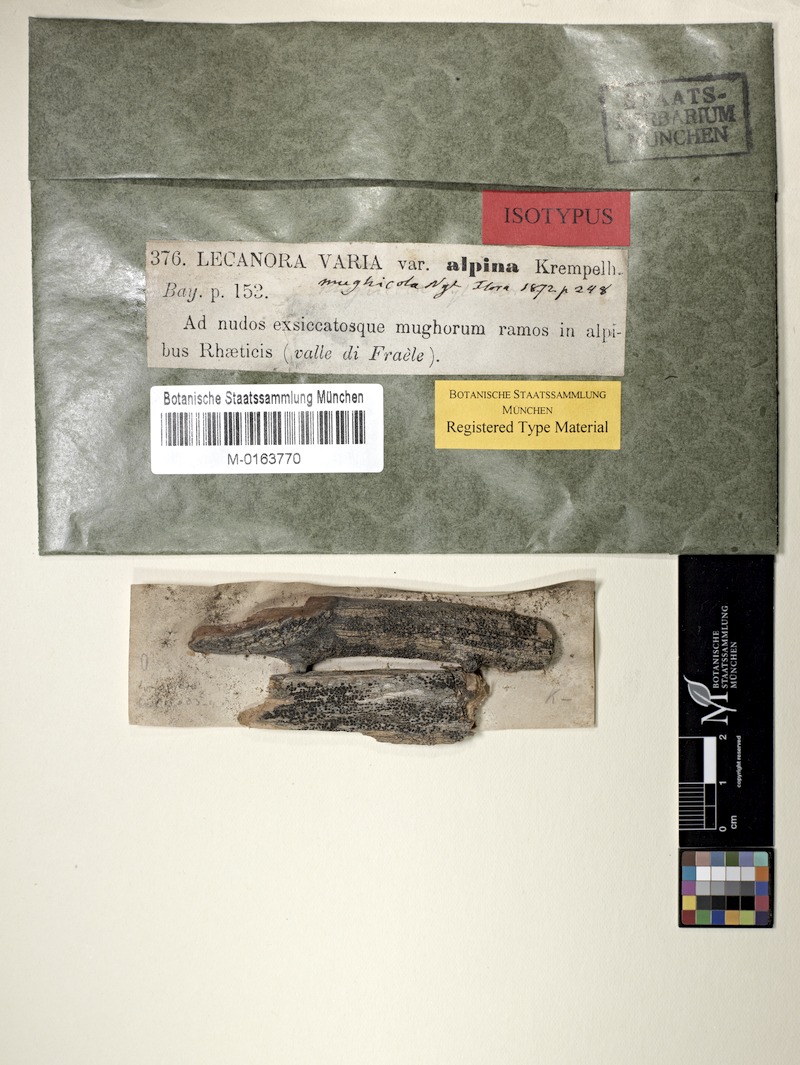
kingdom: Fungi
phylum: Ascomycota
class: Lecanoromycetes
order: Lecanorales
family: Lecanoraceae
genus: Lecanora
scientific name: Lecanora mughicola
